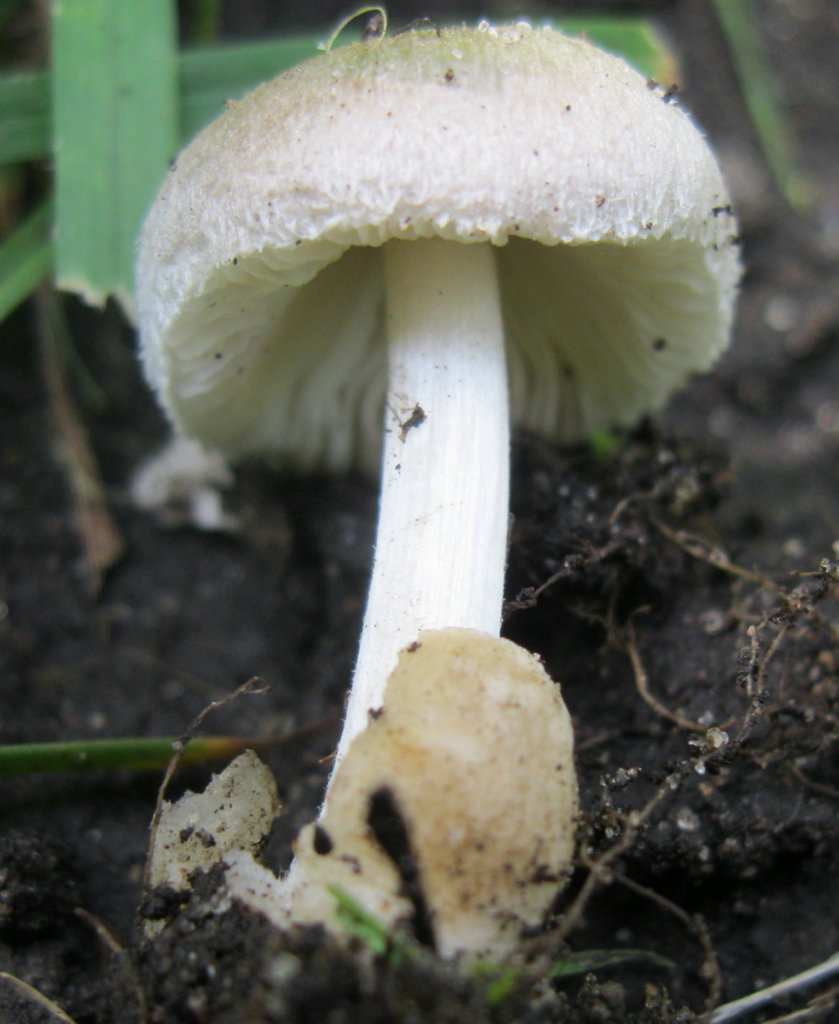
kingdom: Fungi
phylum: Basidiomycota
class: Agaricomycetes
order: Agaricales
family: Pluteaceae
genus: Volvariella
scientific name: Volvariella murinella
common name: musegrå posesvamp
